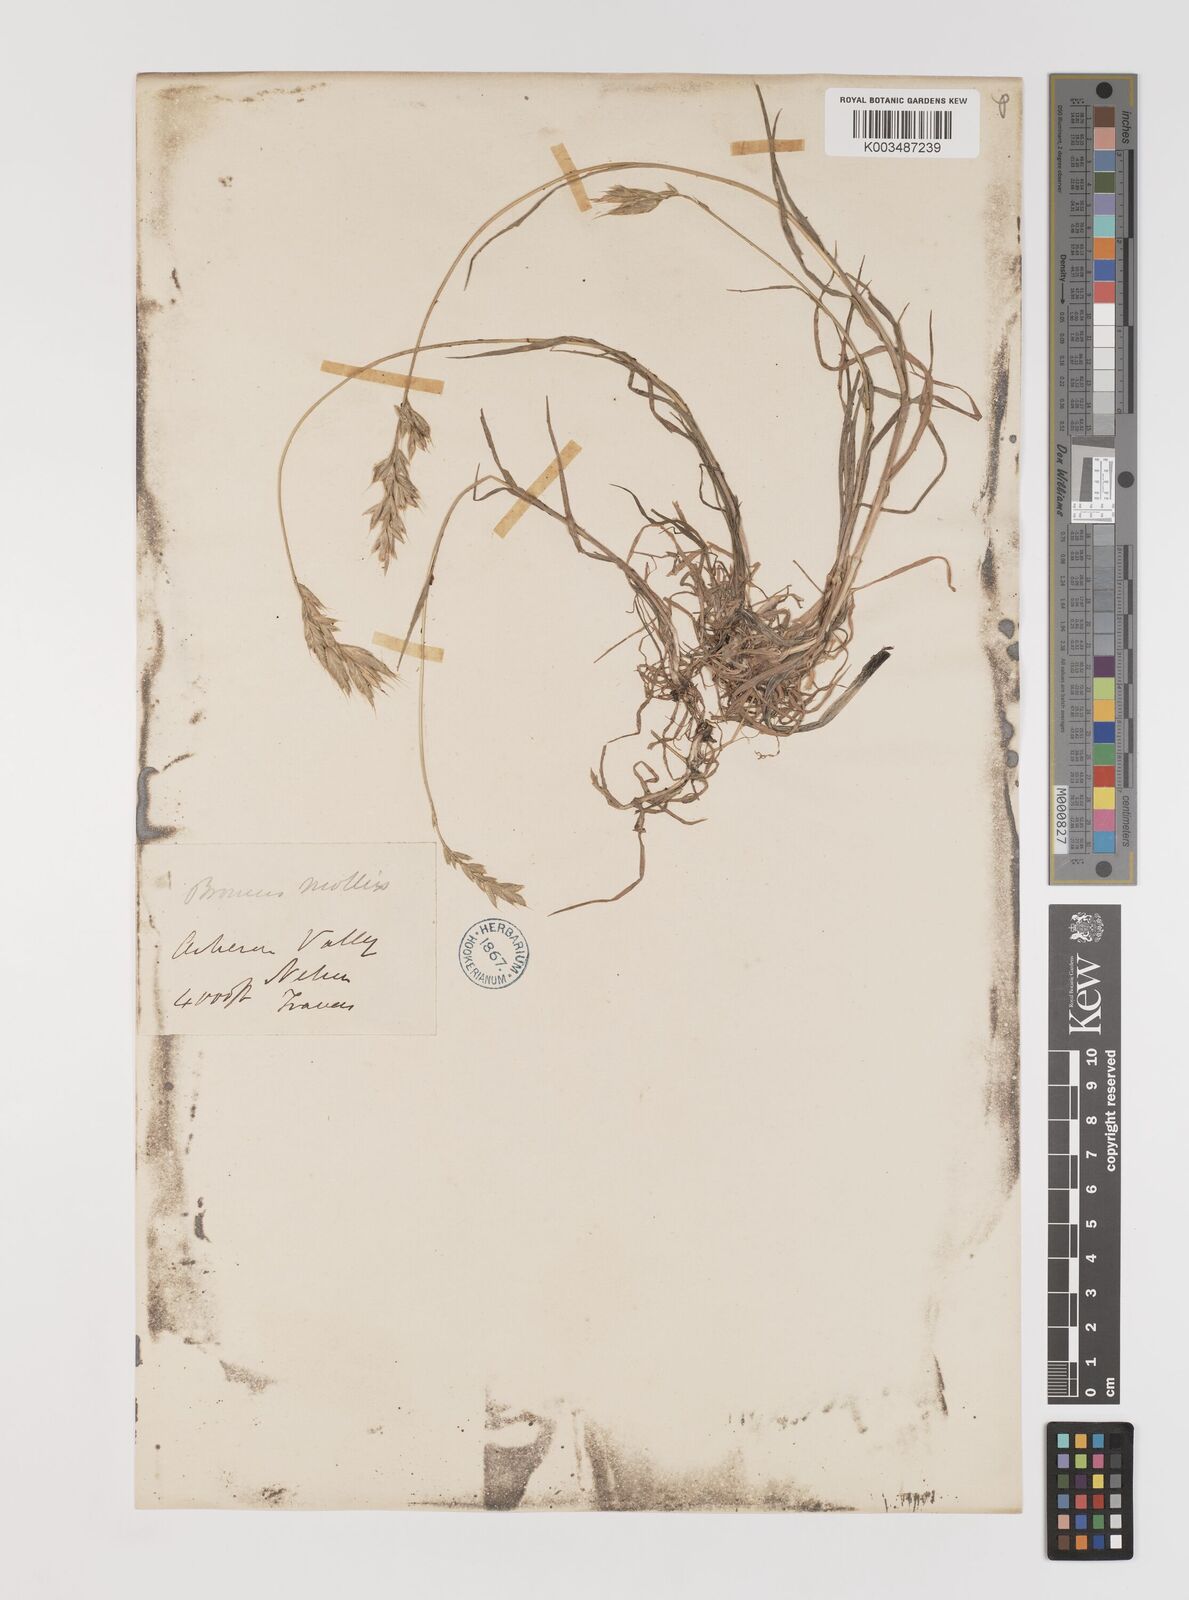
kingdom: Plantae
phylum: Tracheophyta
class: Liliopsida
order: Poales
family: Poaceae
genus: Bromus
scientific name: Bromus hordeaceus
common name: Soft brome
